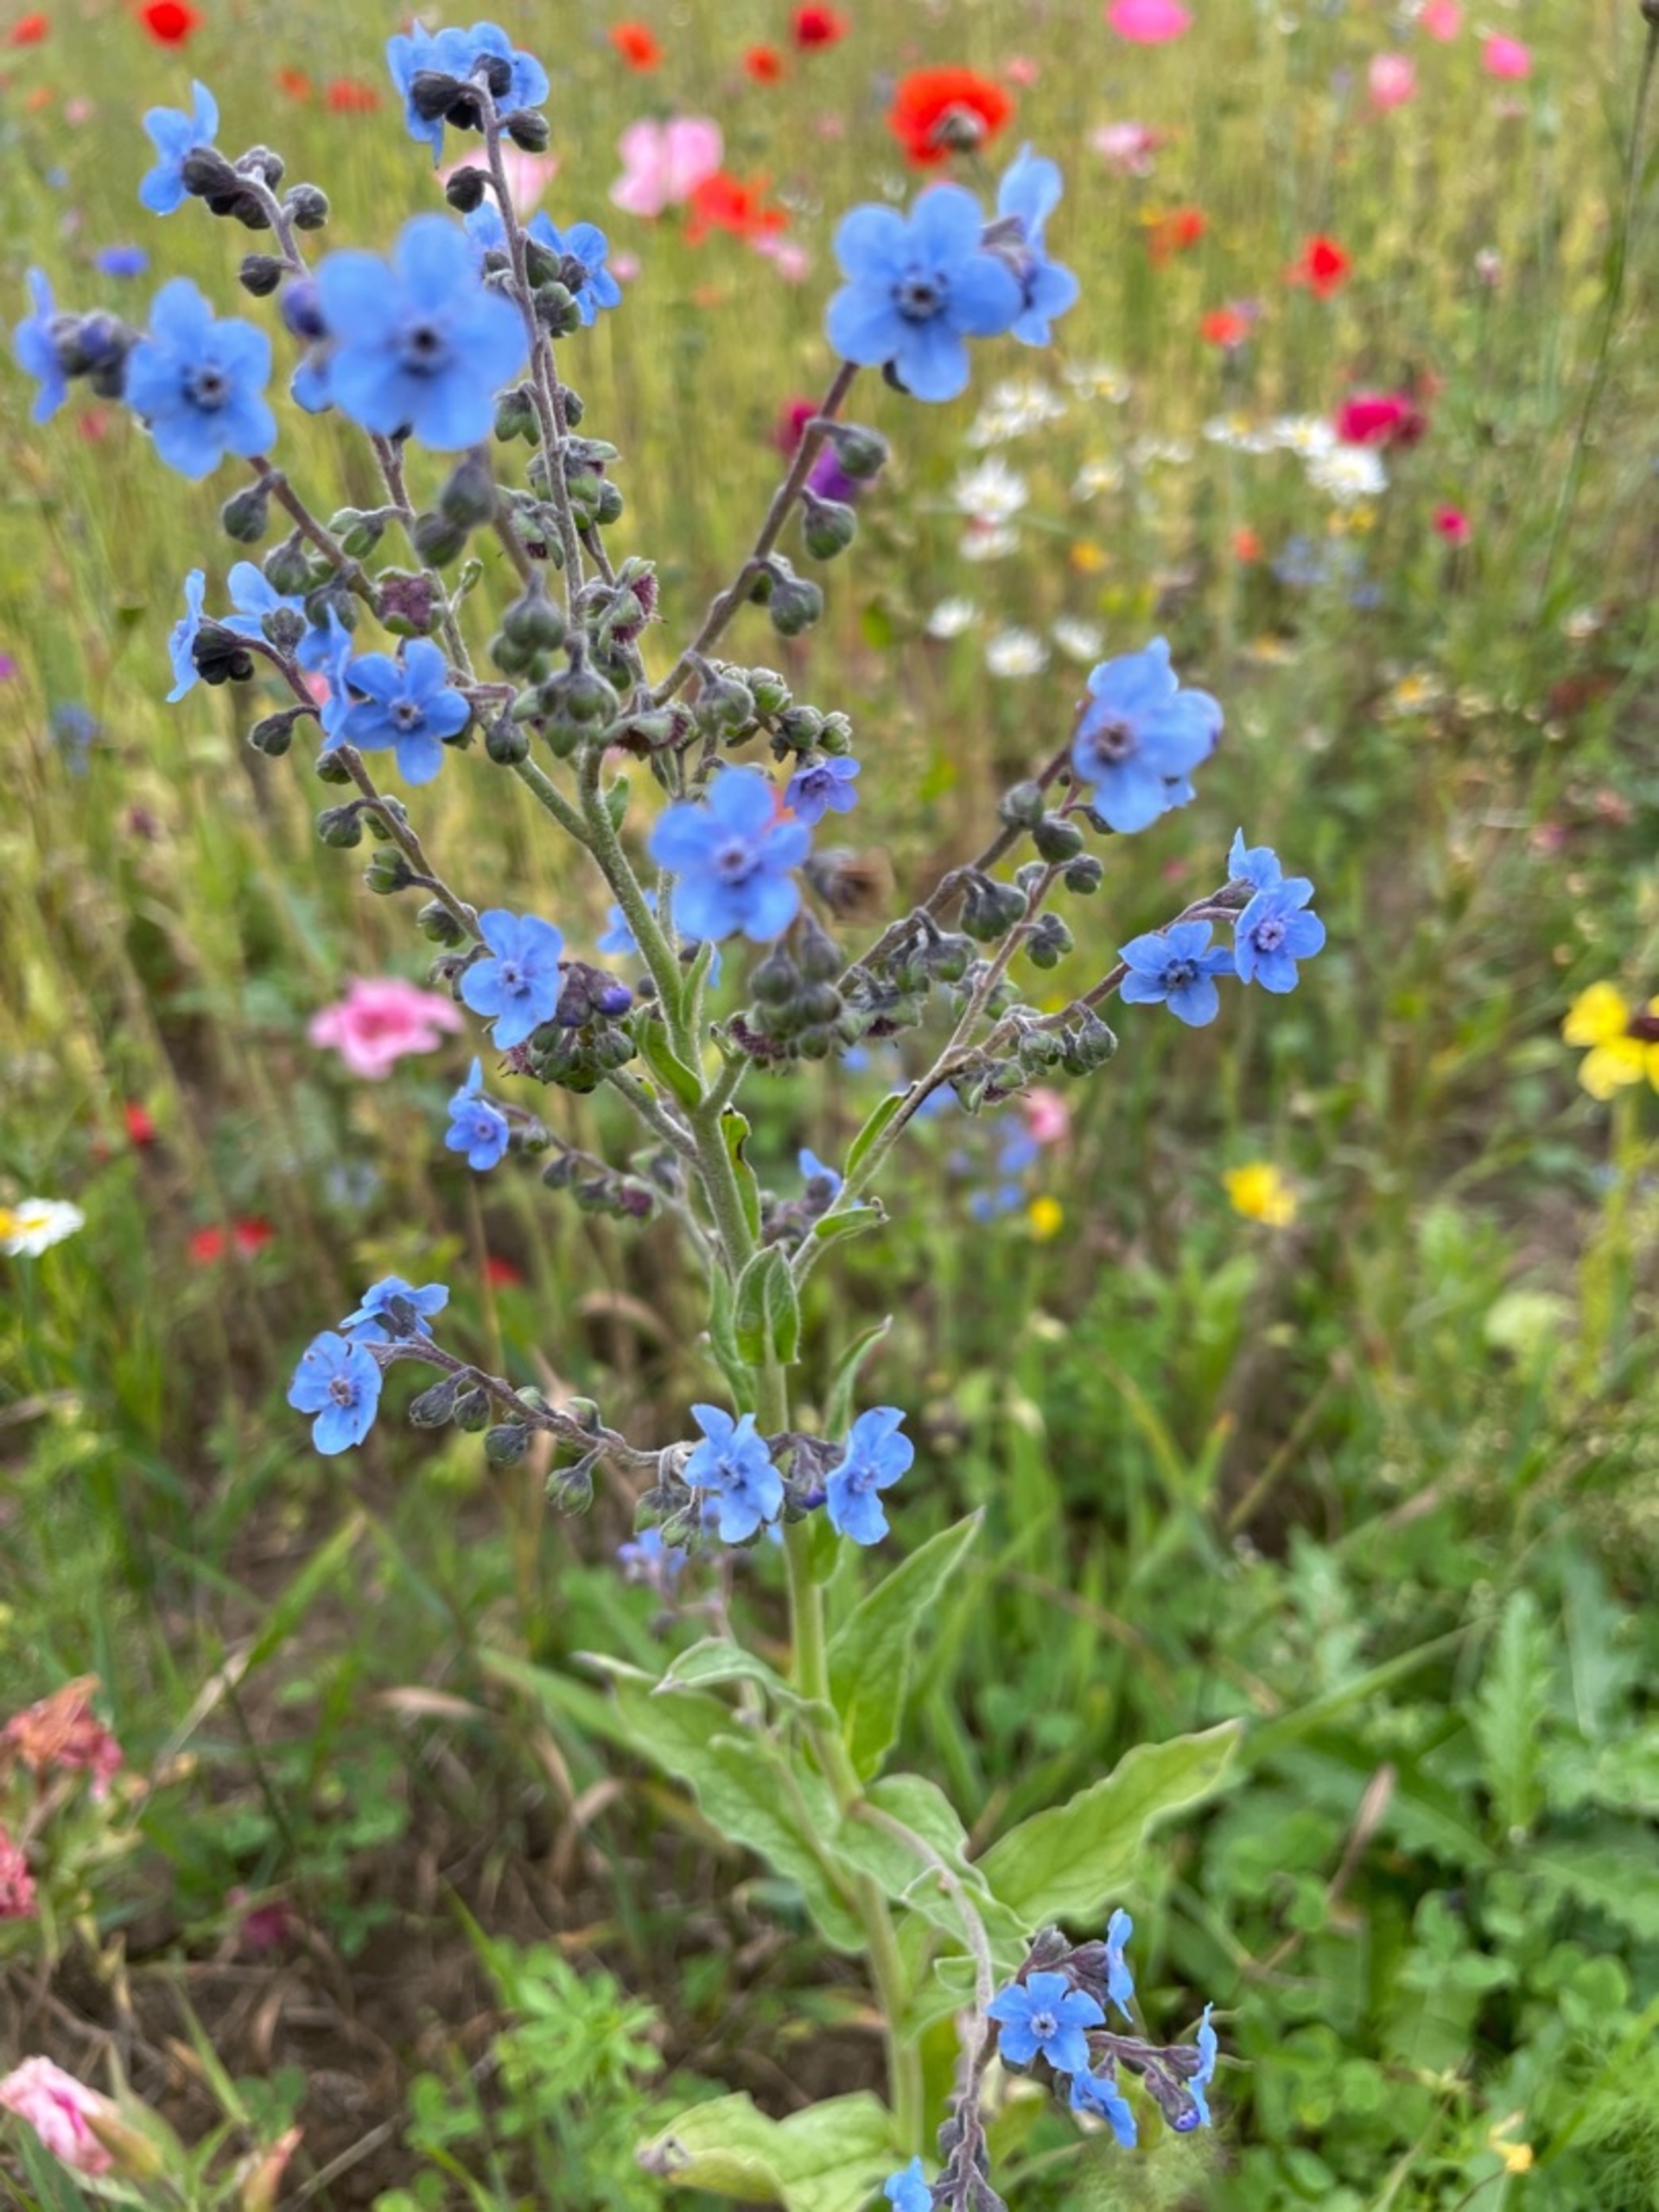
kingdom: Plantae
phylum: Tracheophyta
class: Magnoliopsida
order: Boraginales
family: Boraginaceae
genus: Cynoglossum
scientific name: Cynoglossum amabile
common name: Kinesisk hundetunge
